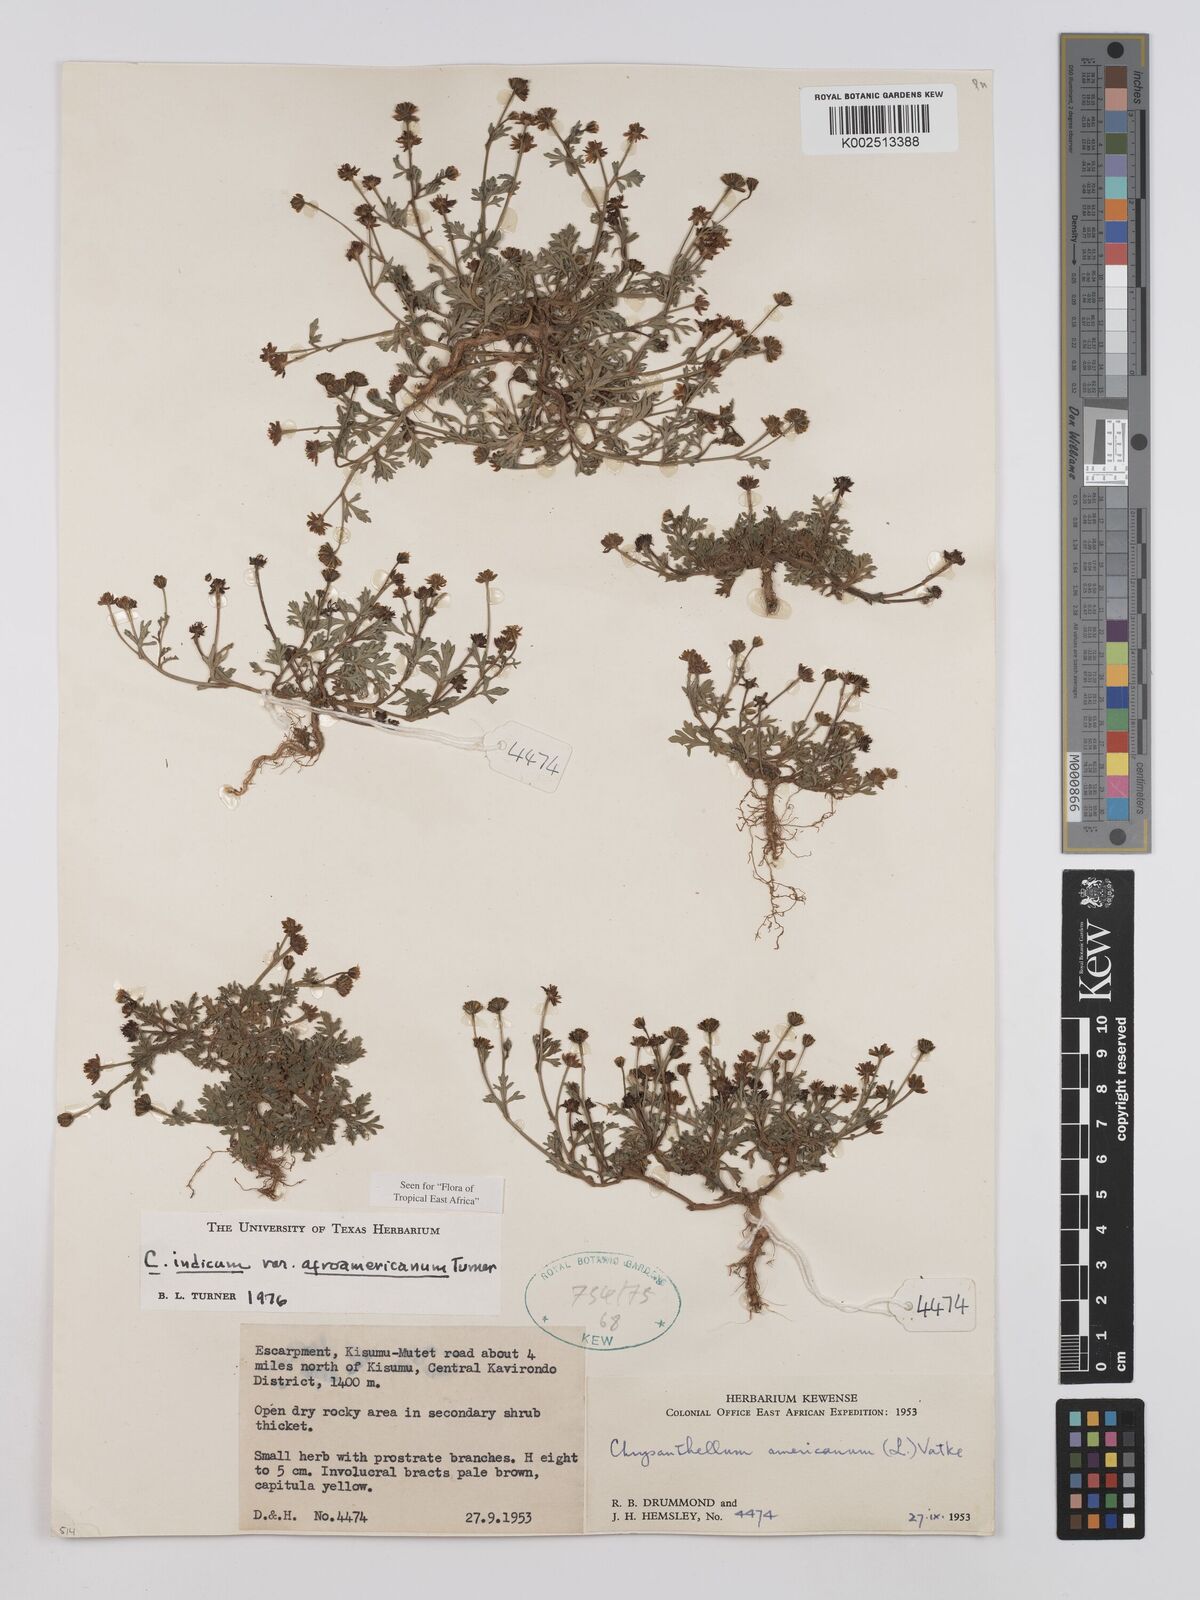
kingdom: Plantae
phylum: Tracheophyta
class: Magnoliopsida
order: Asterales
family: Asteraceae
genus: Chrysanthellum
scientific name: Chrysanthellum indicum
